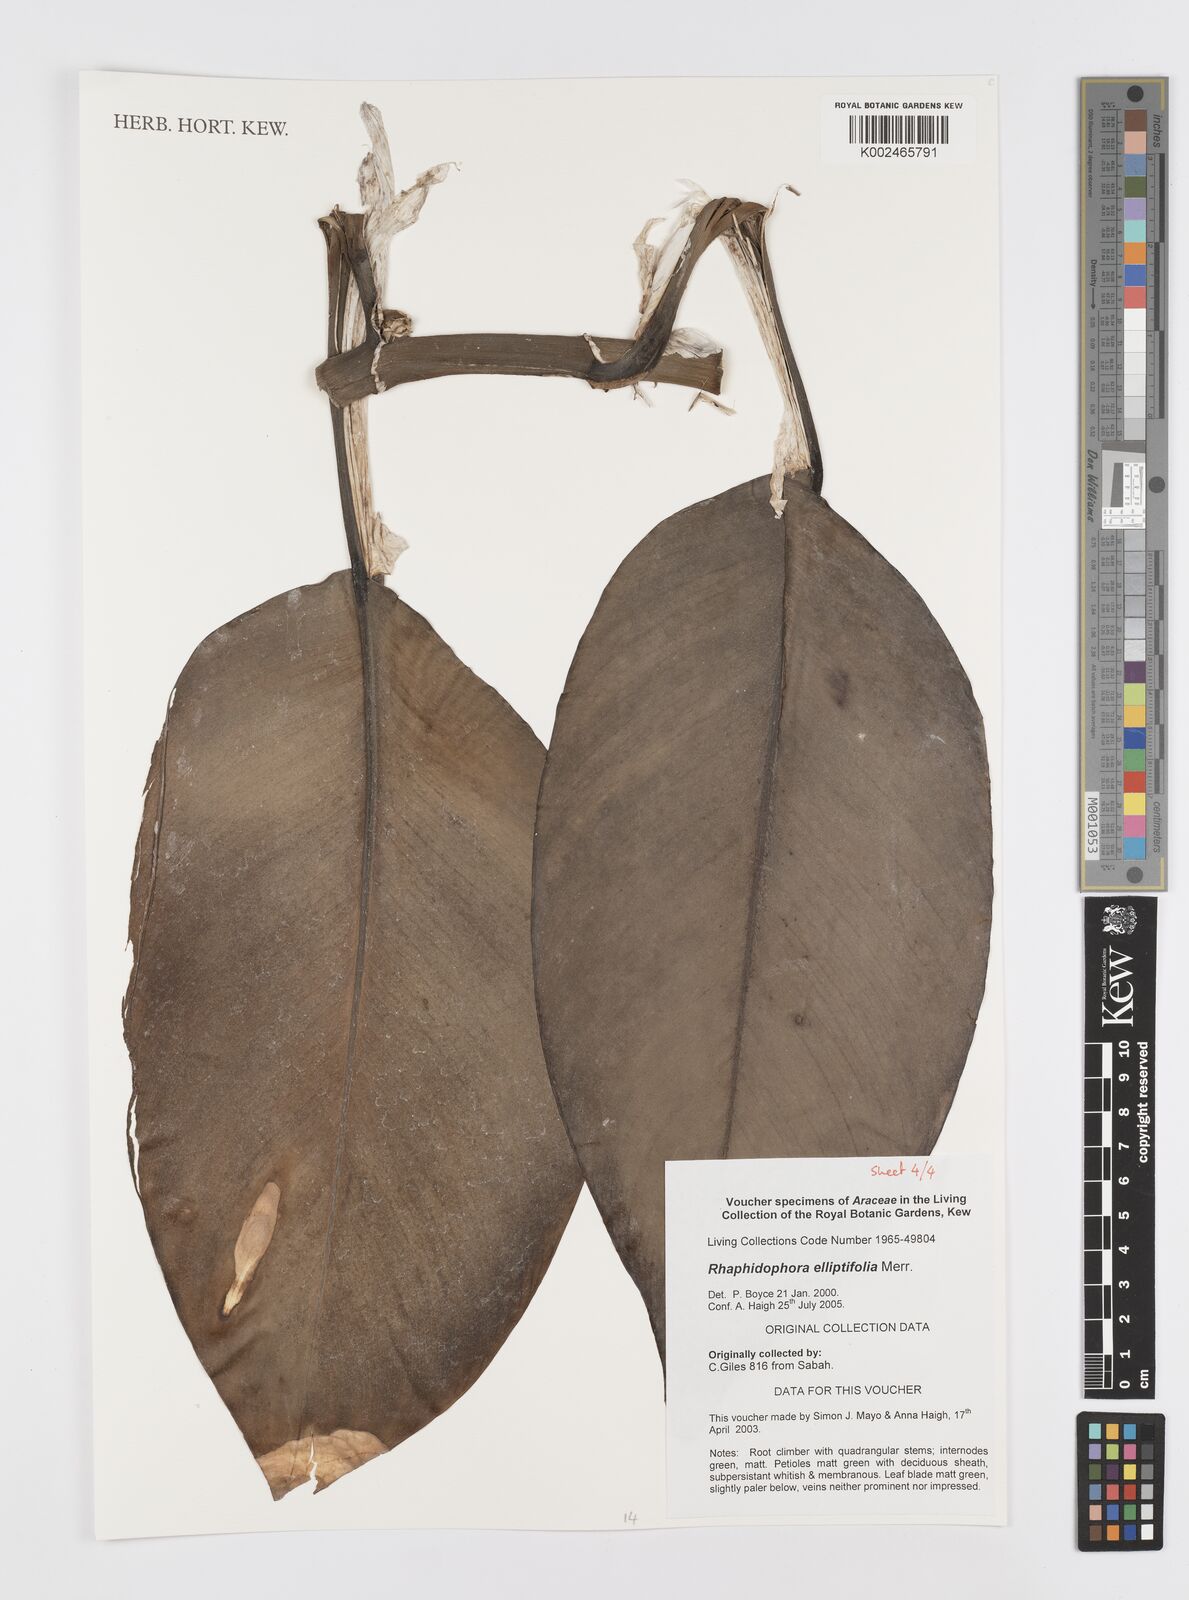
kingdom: Plantae
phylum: Tracheophyta
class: Liliopsida
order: Alismatales
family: Araceae
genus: Rhaphidophora
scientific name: Rhaphidophora elliptifolia
